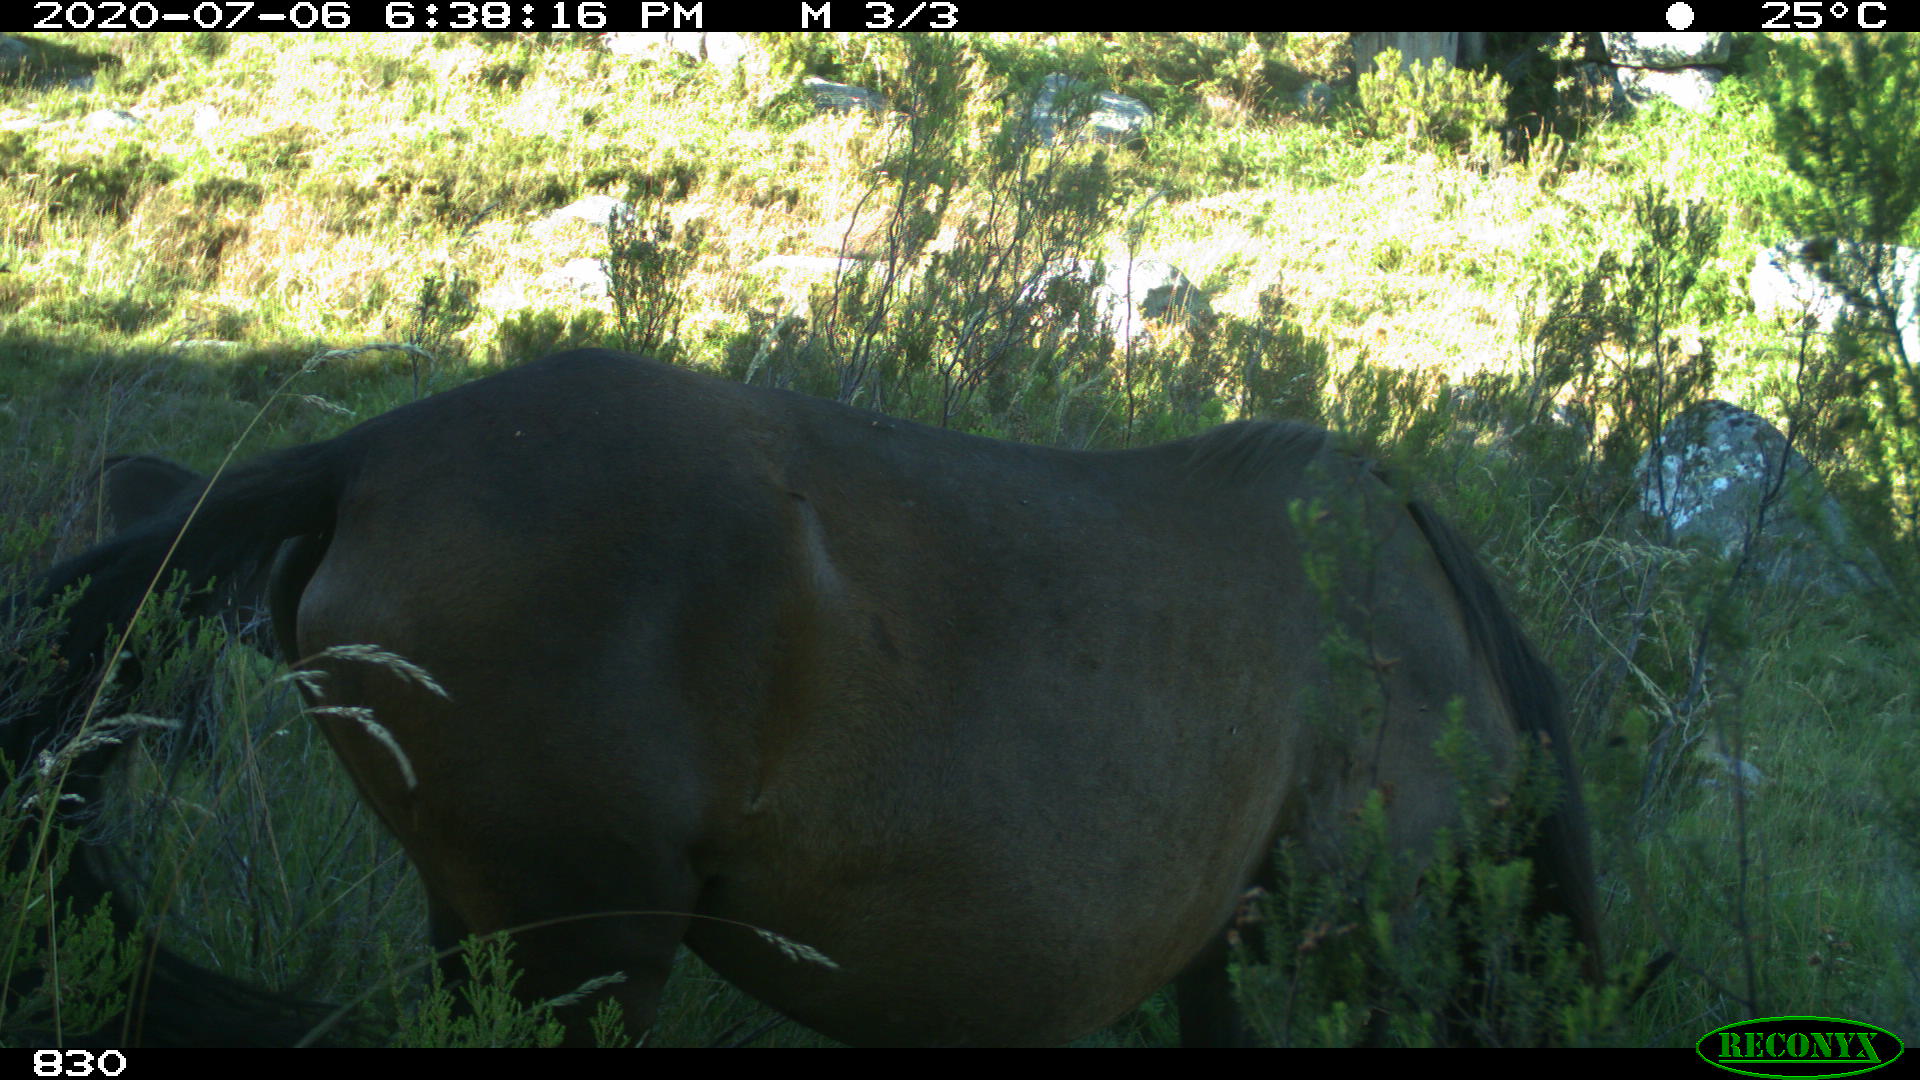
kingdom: Animalia
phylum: Chordata
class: Mammalia
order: Perissodactyla
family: Equidae
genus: Equus
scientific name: Equus caballus
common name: Horse
